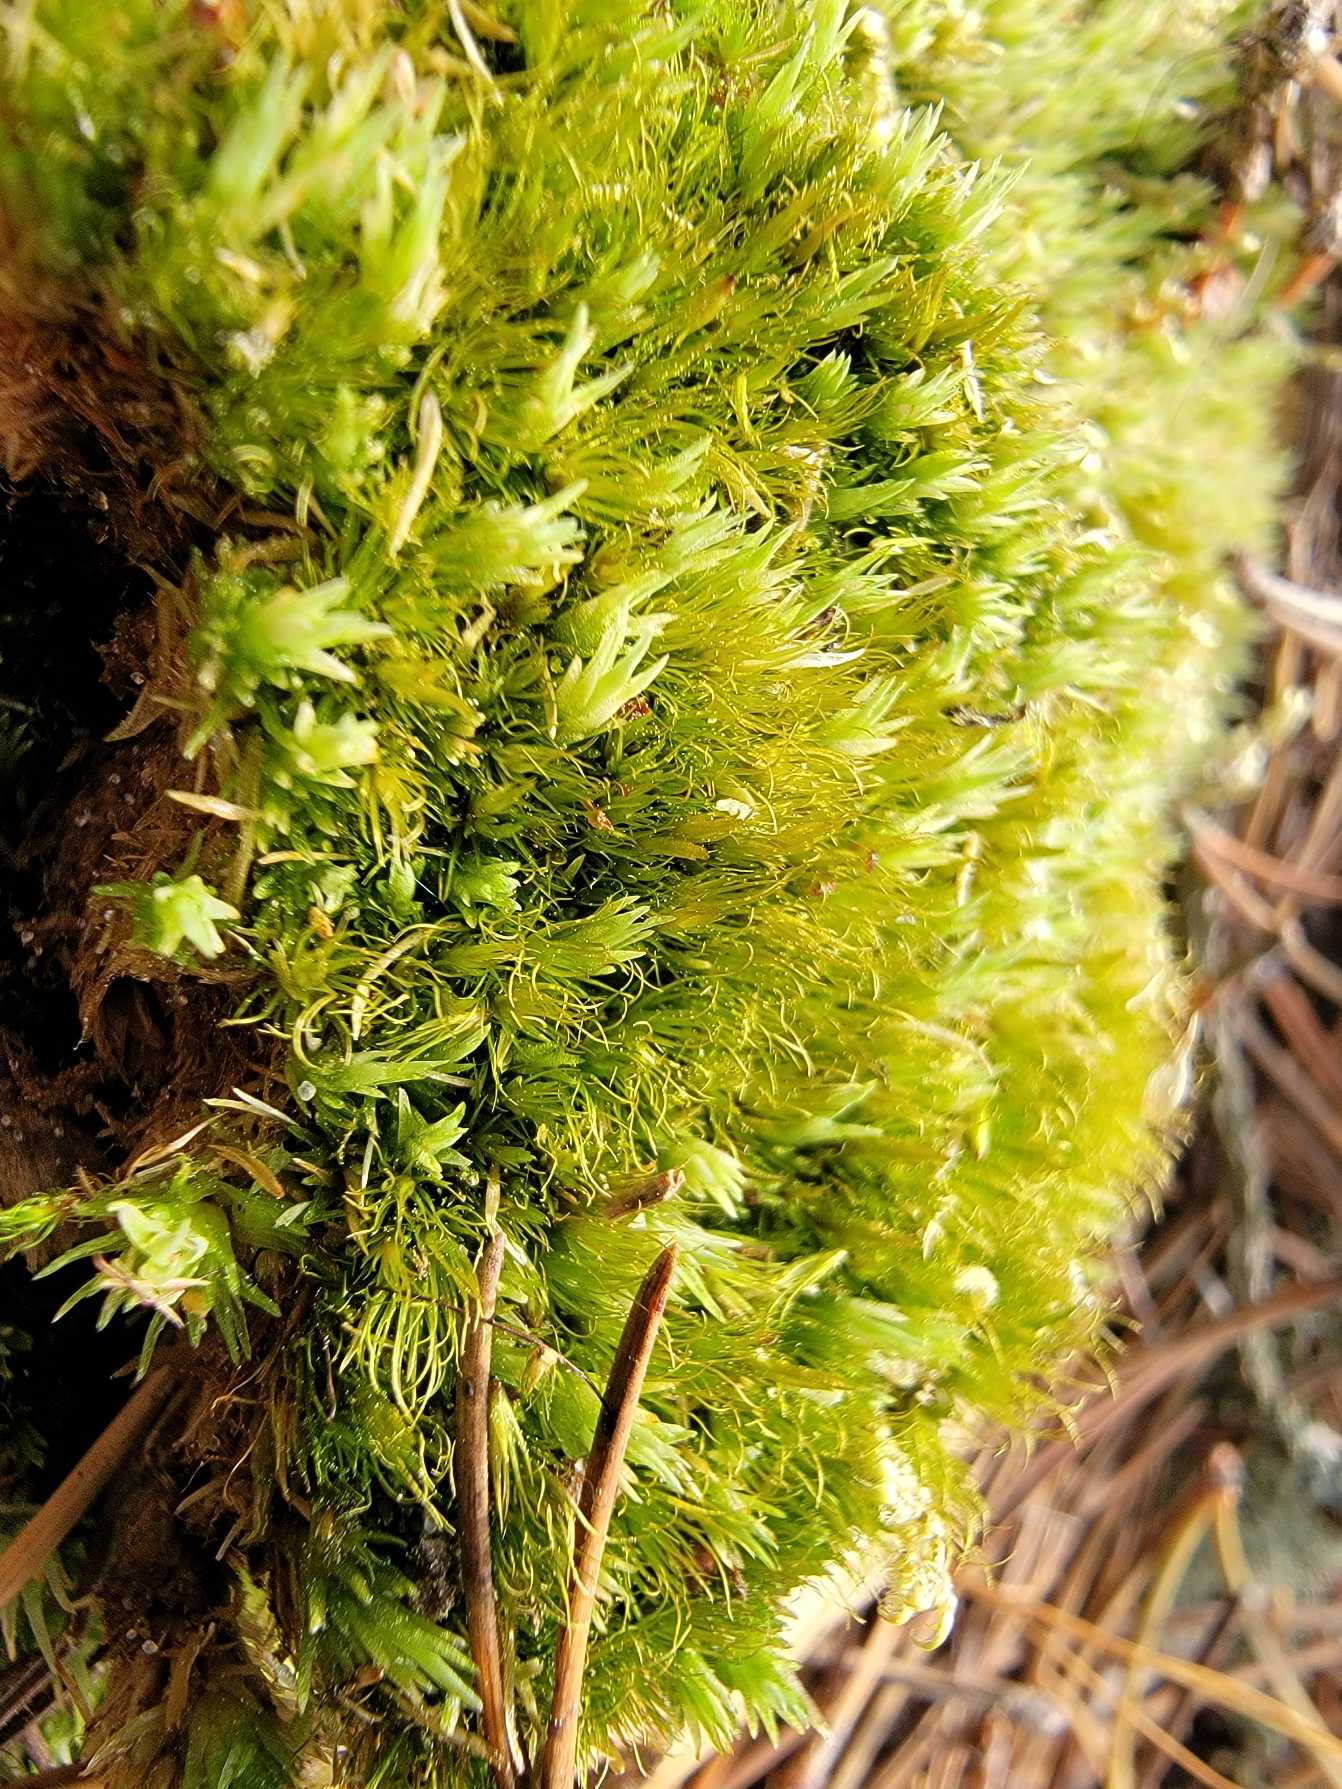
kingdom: Plantae
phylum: Bryophyta
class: Bryopsida
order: Dicranales
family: Leucobryaceae
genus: Campylopus
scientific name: Campylopus flexuosus
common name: Filtet bredribbe
